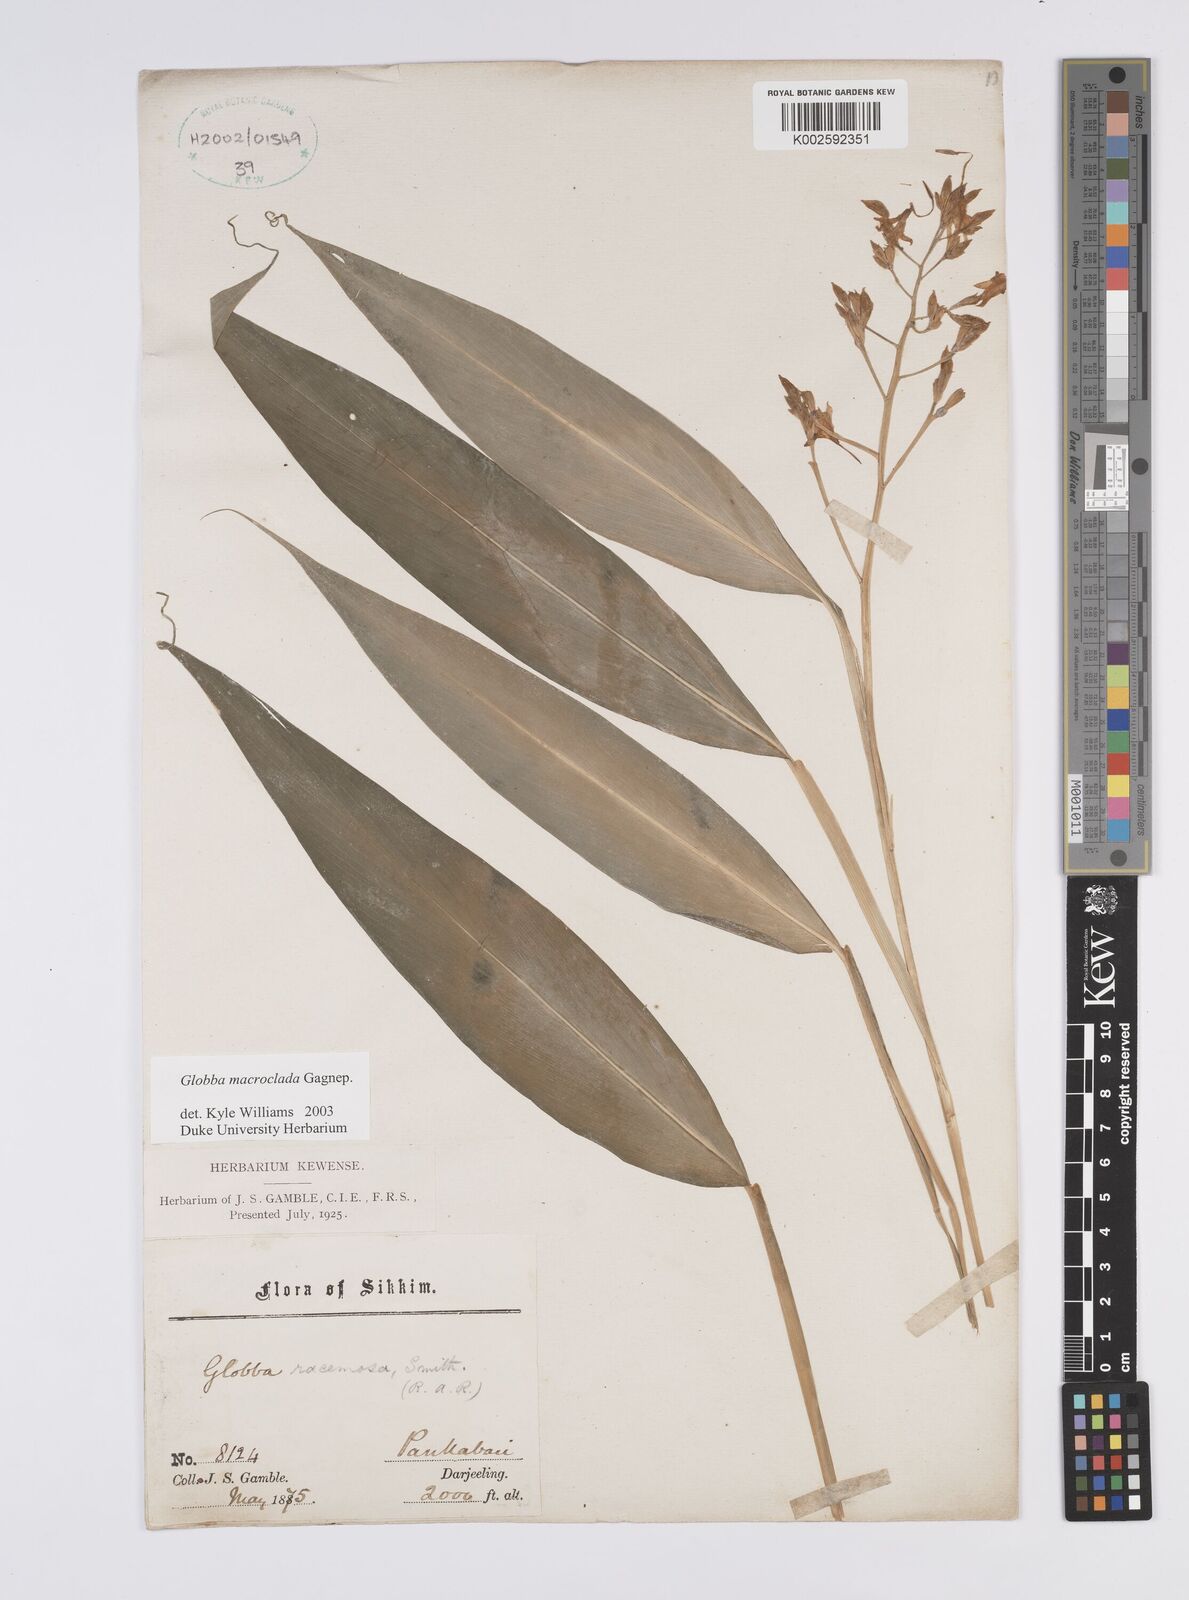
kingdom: Plantae
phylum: Tracheophyta
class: Liliopsida
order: Zingiberales
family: Zingiberaceae
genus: Globba
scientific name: Globba macroclada
